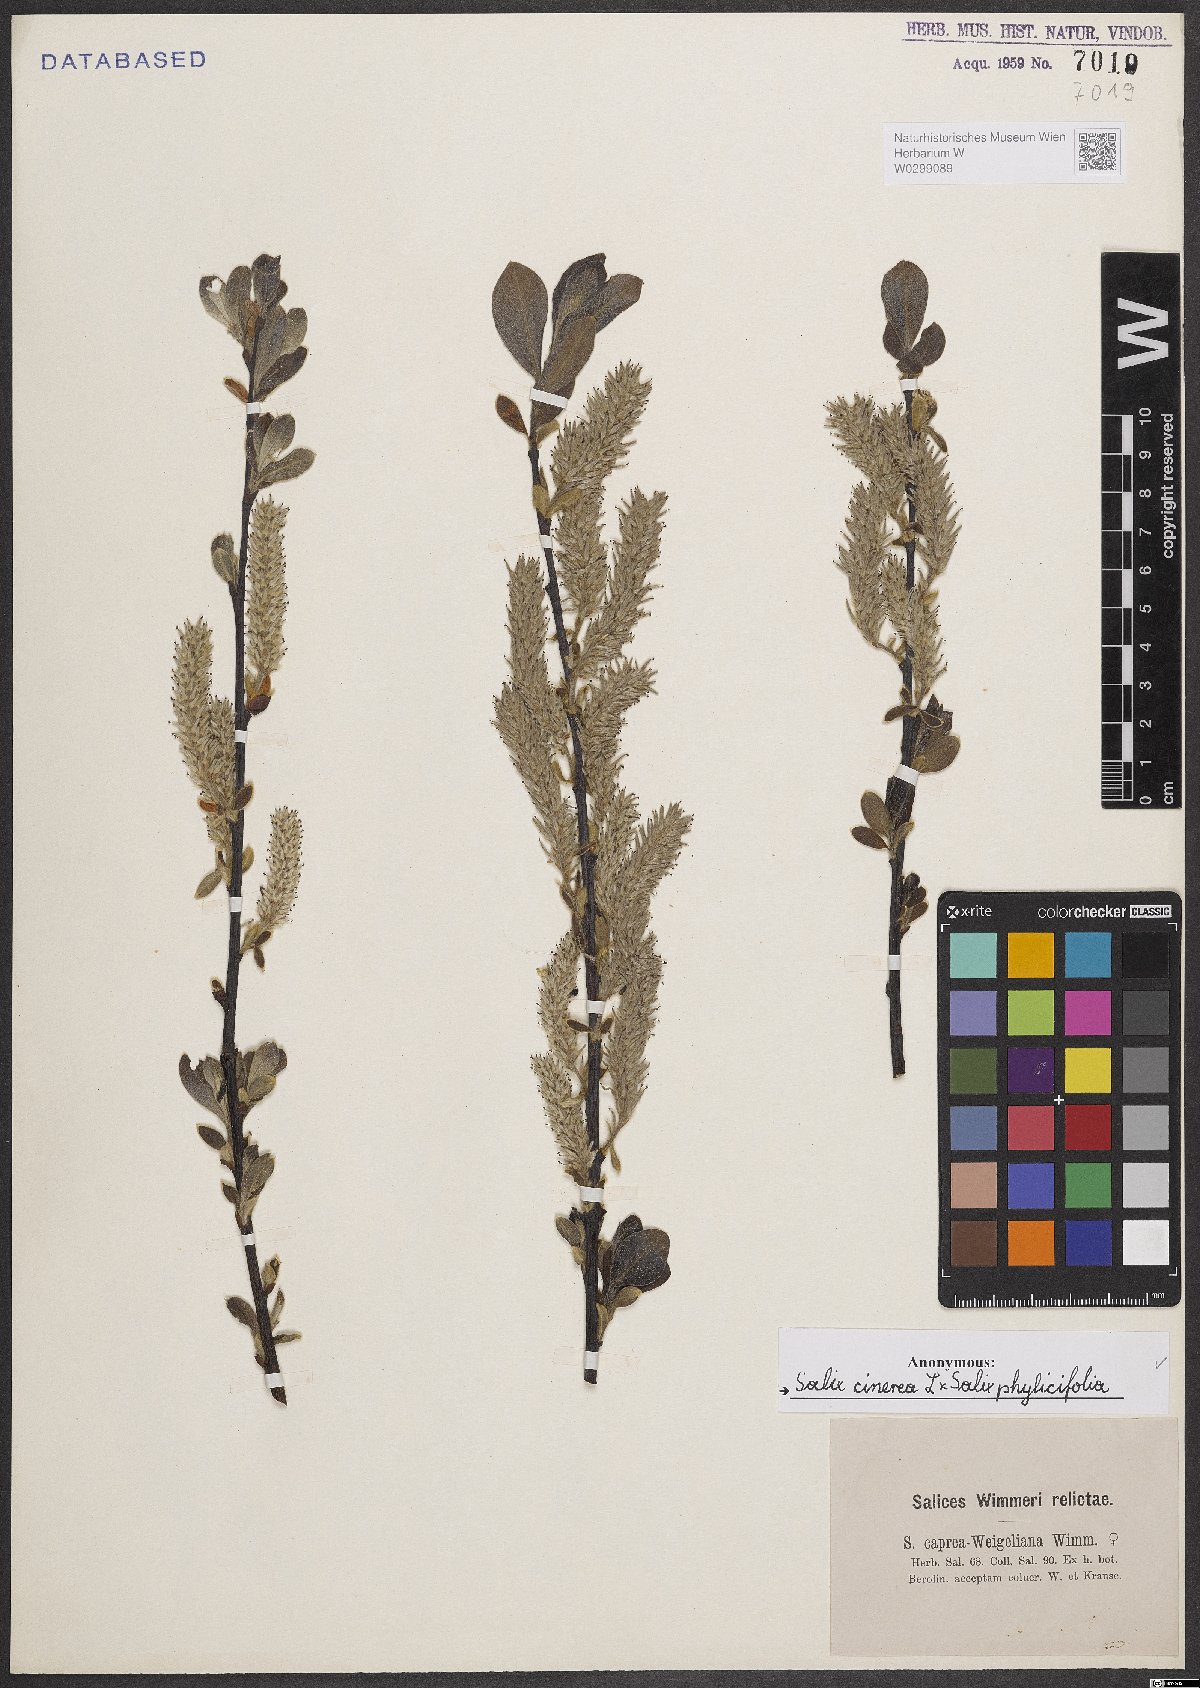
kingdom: Plantae
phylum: Tracheophyta
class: Magnoliopsida
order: Malpighiales
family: Salicaceae
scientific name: Salicaceae
